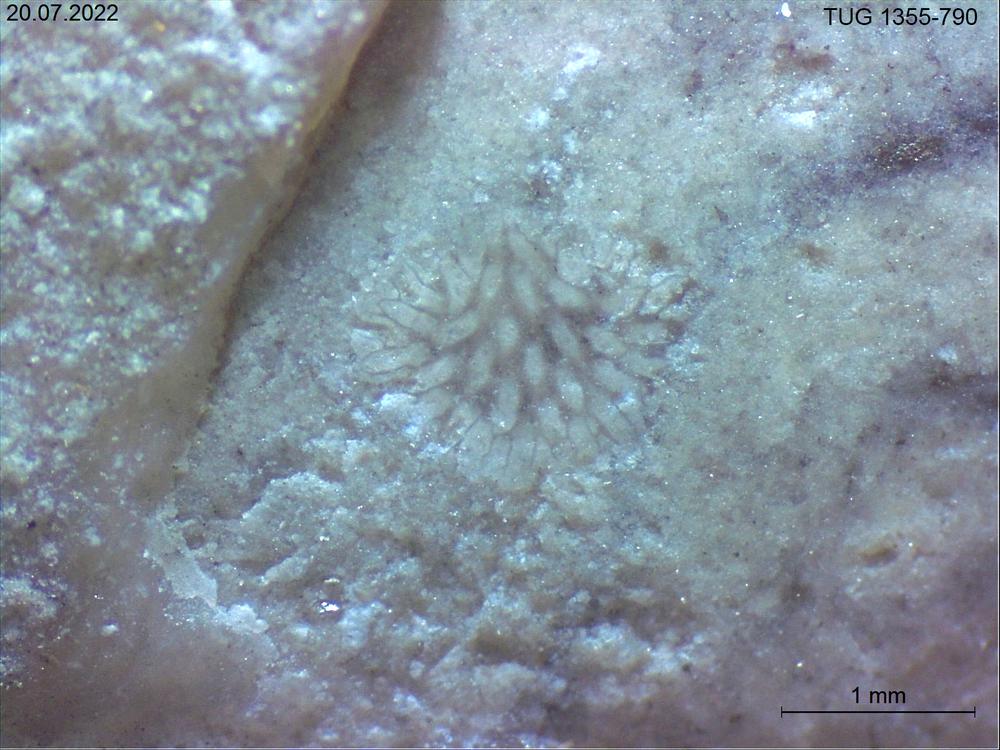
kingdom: Animalia
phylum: Bryozoa
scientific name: Bryozoa
